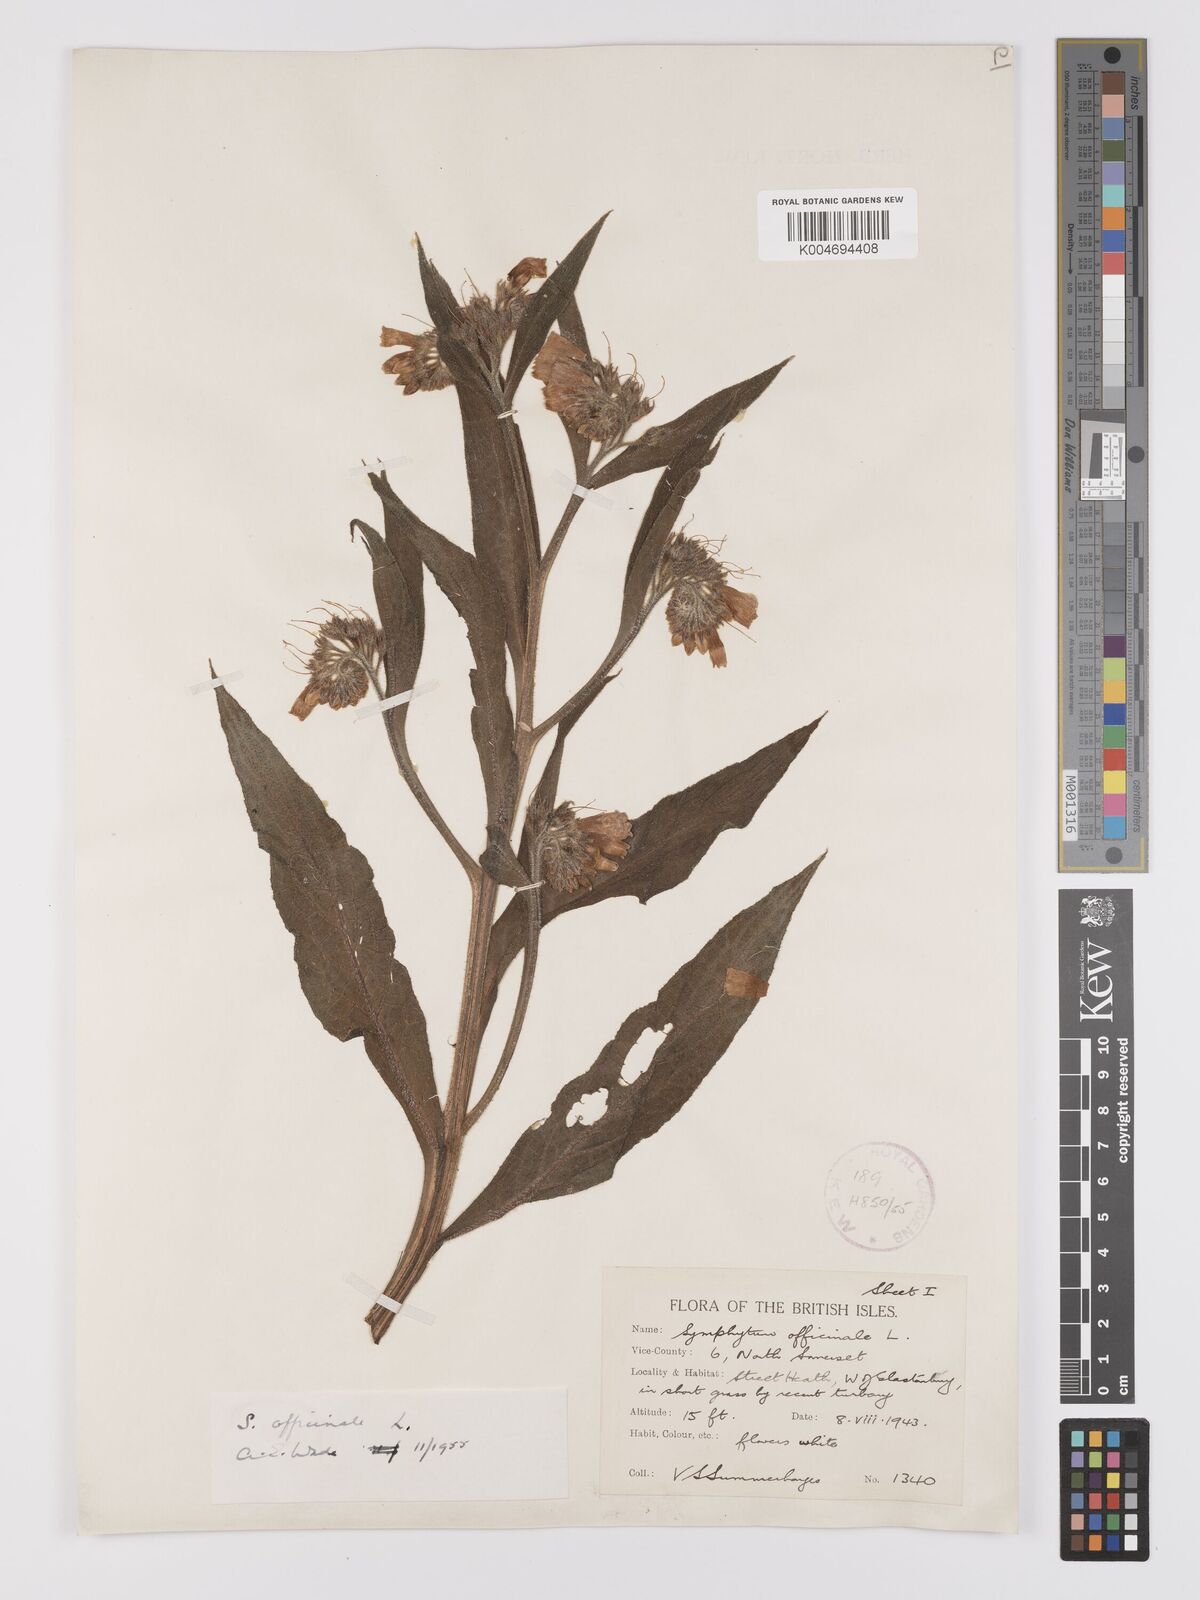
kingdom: Plantae
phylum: Tracheophyta
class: Magnoliopsida
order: Boraginales
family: Boraginaceae
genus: Symphytum
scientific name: Symphytum officinale
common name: Common comfrey
